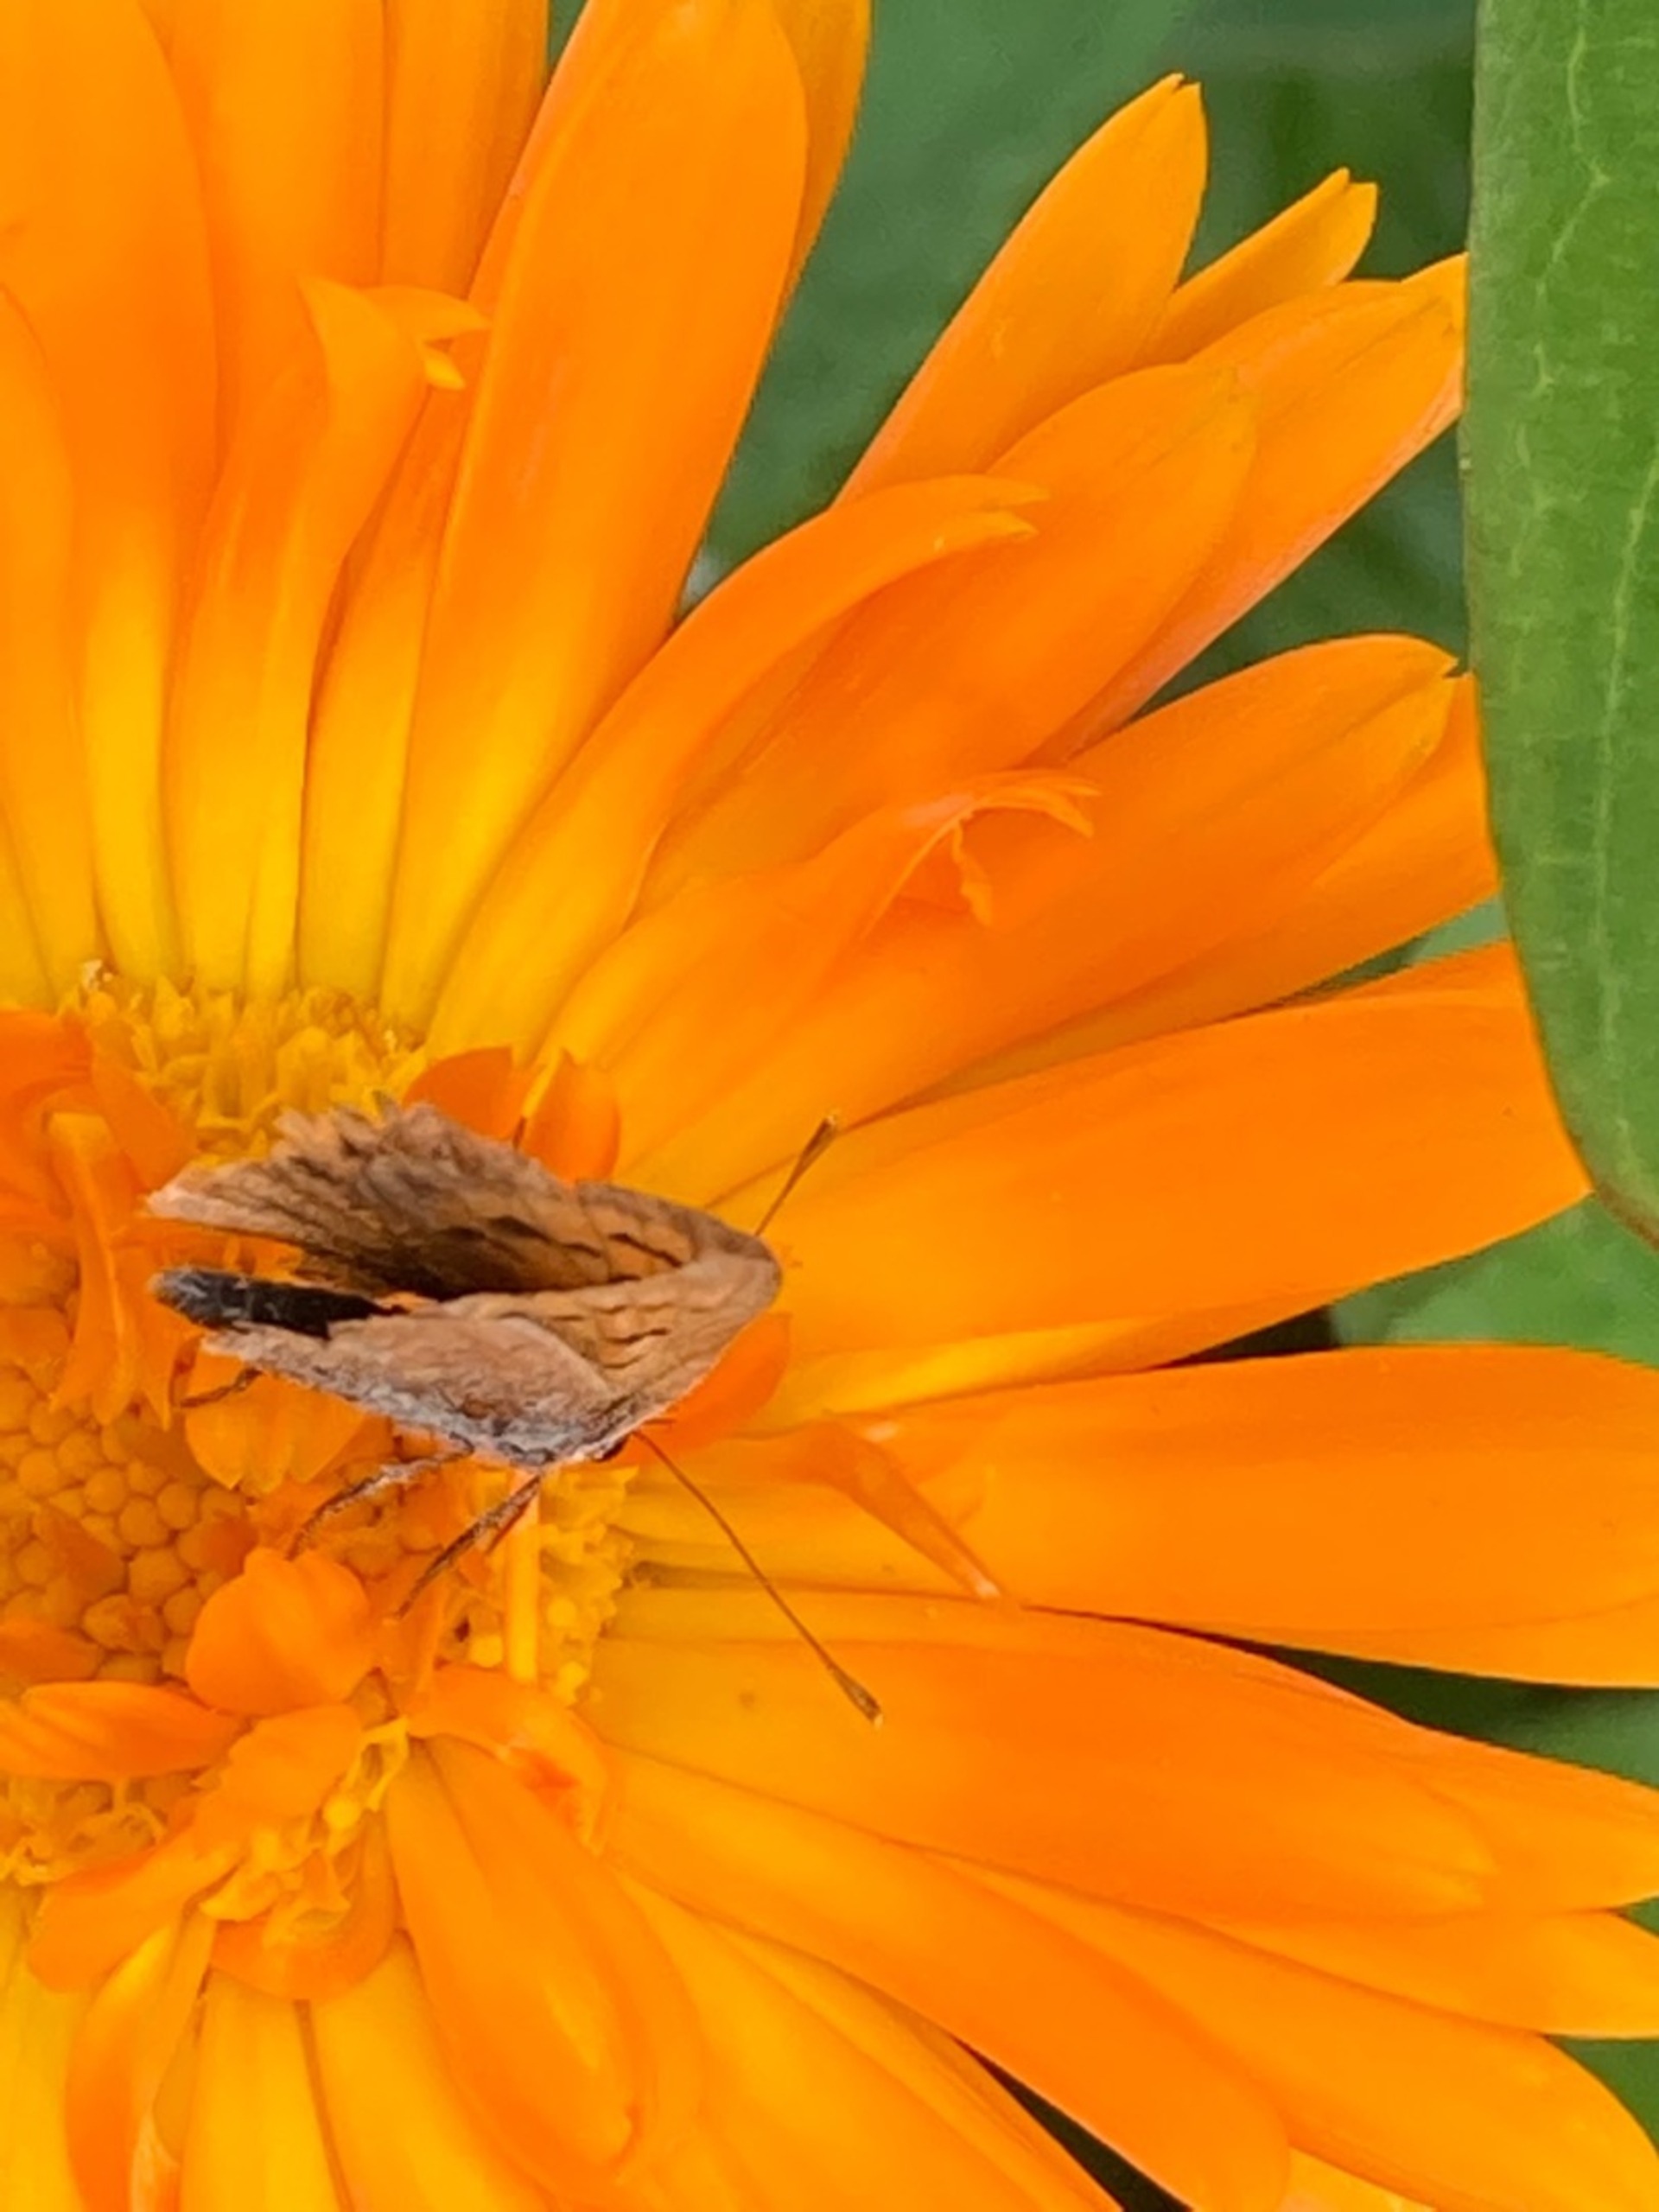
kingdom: Animalia
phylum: Arthropoda
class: Insecta
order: Lepidoptera
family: Lycaenidae
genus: Lycaena
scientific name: Lycaena phlaeas
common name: Lille ildfugl
